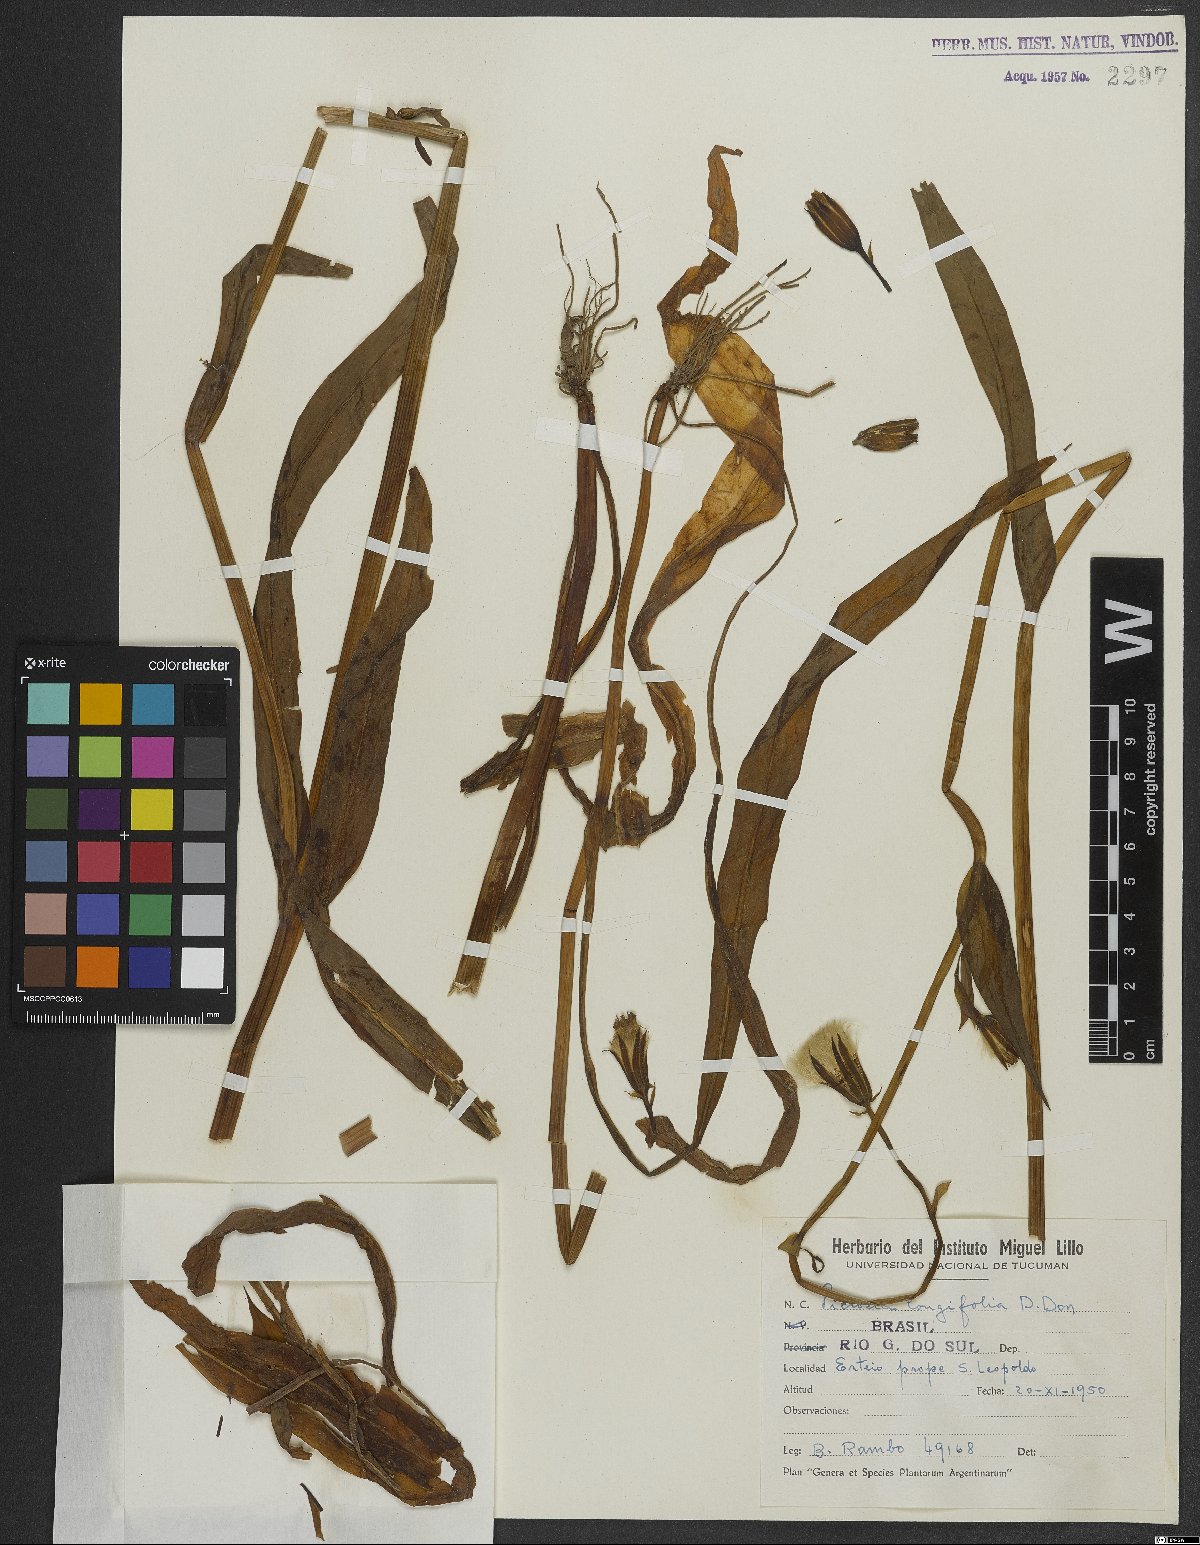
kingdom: Plantae
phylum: Tracheophyta
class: Magnoliopsida
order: Asterales
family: Asteraceae
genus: Picrosia
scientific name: Picrosia longifolia
